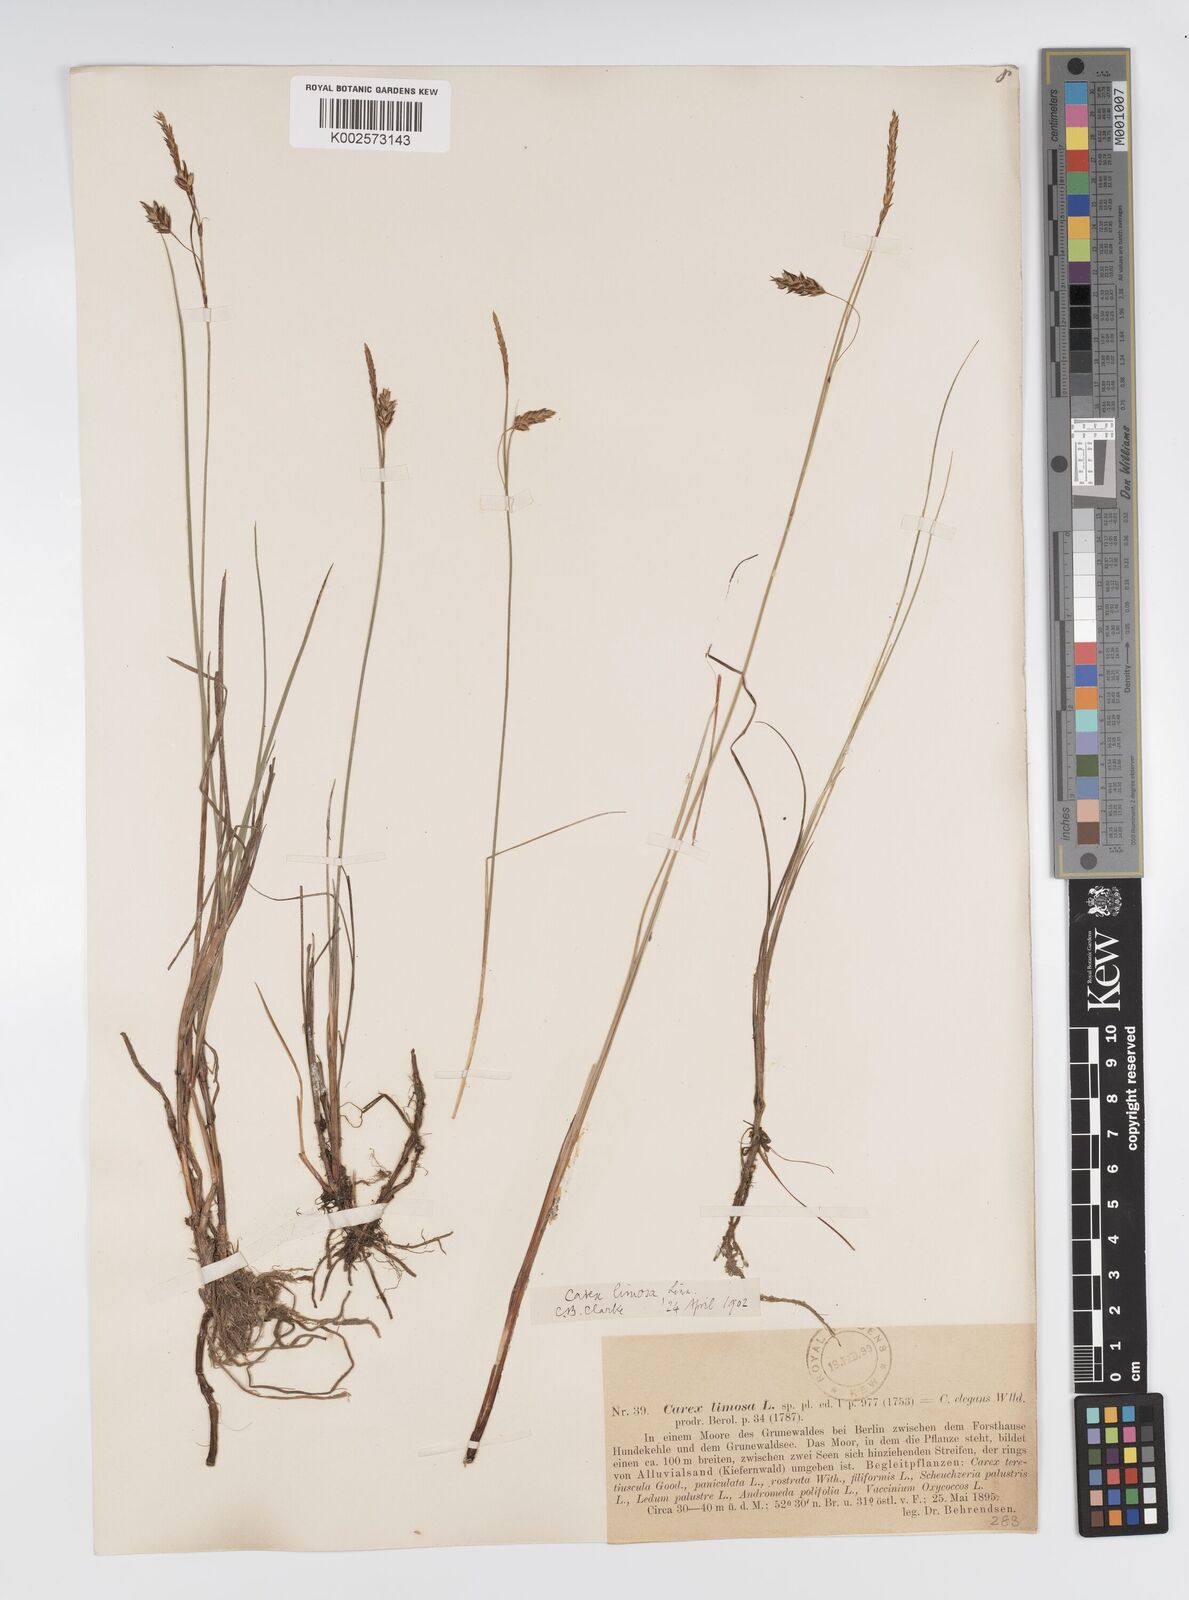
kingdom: Plantae
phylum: Tracheophyta
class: Liliopsida
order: Poales
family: Cyperaceae
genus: Carex
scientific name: Carex limosa
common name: Bog sedge
